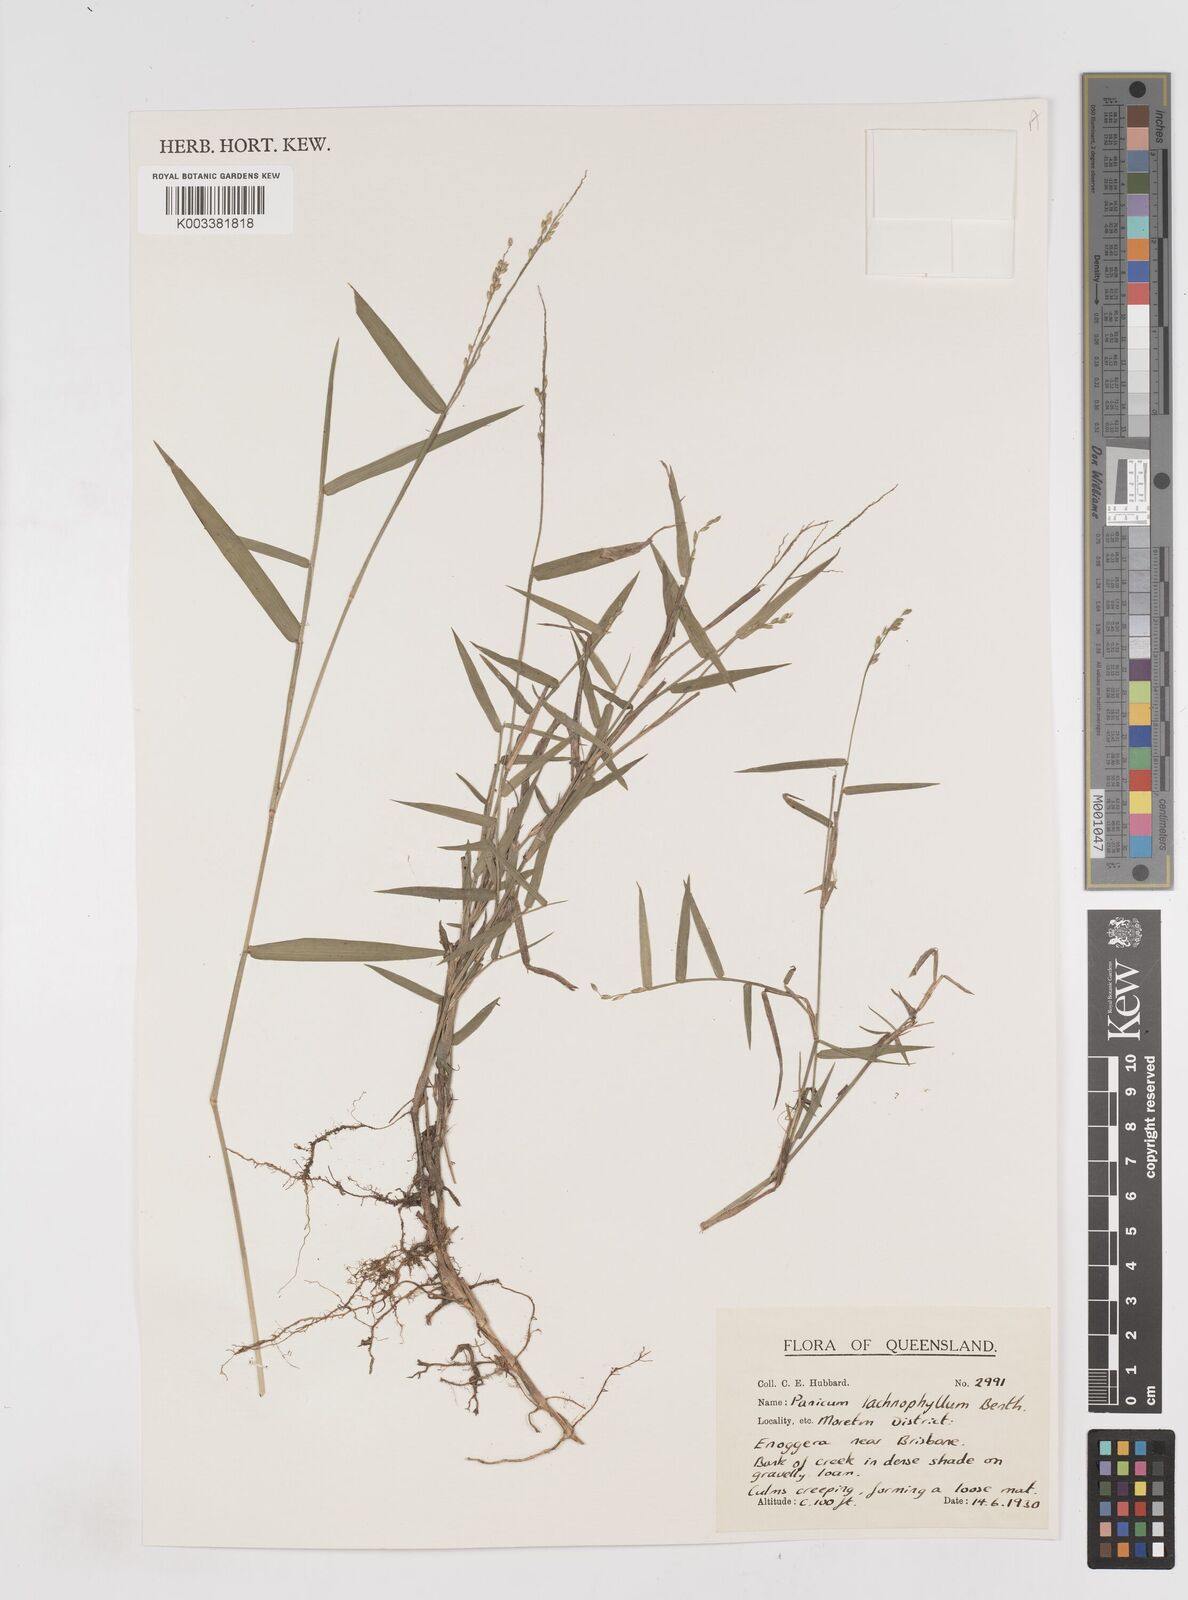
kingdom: Plantae
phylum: Tracheophyta
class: Liliopsida
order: Poales
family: Poaceae
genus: Entolasia
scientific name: Entolasia
